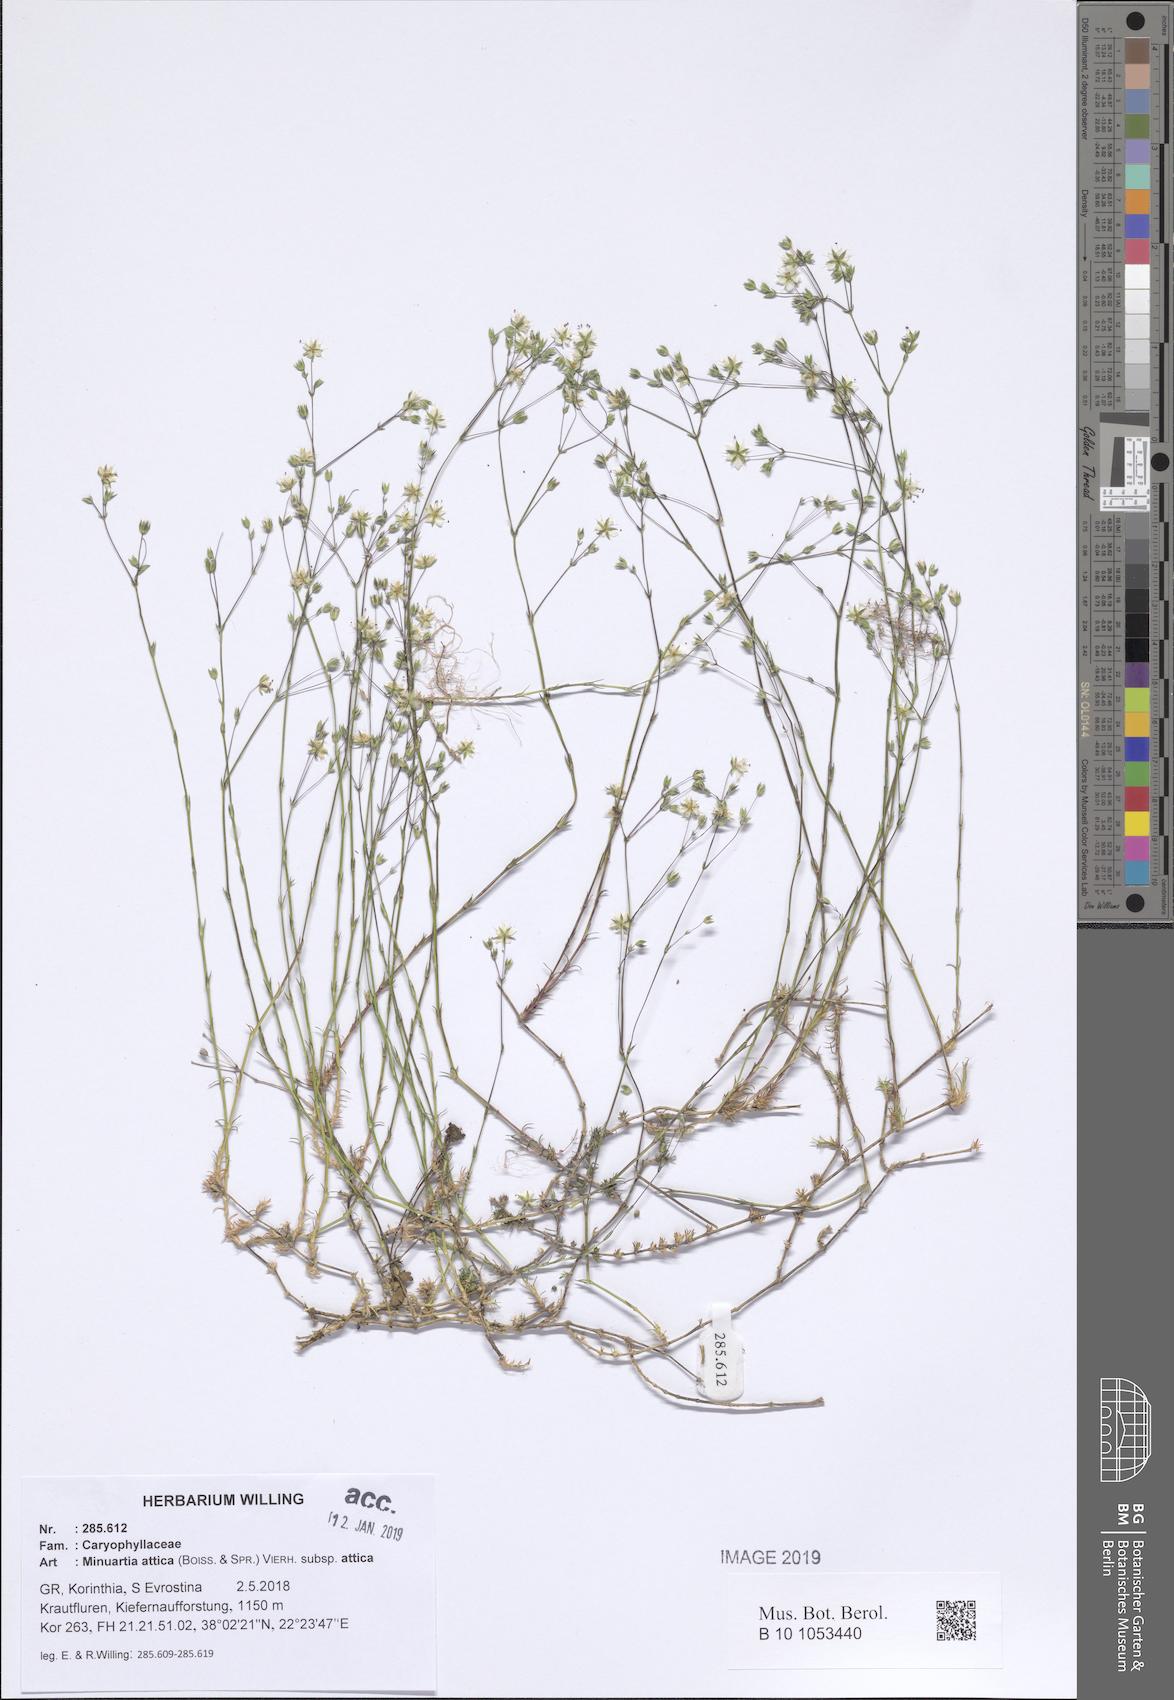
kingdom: Plantae
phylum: Tracheophyta
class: Magnoliopsida
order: Caryophyllales
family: Caryophyllaceae
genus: Sabulina
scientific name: Sabulina attica
